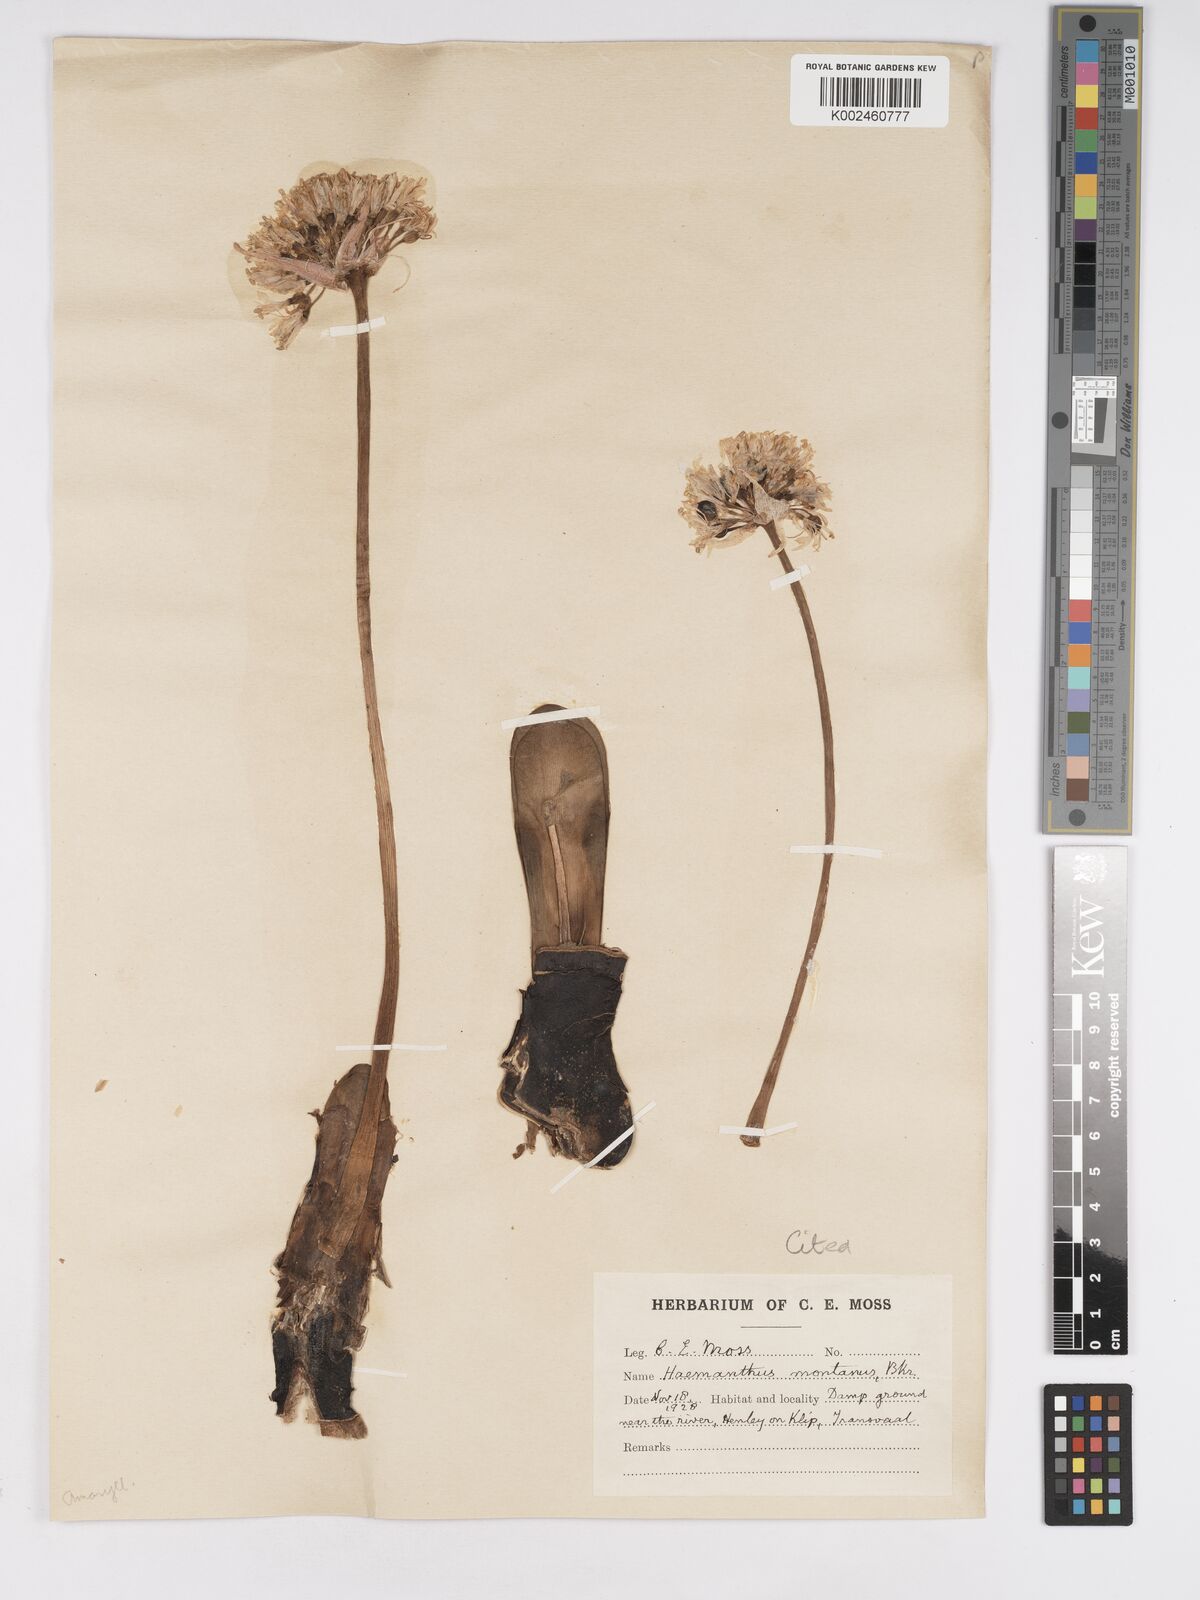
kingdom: Plantae
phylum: Tracheophyta
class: Liliopsida
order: Asparagales
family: Amaryllidaceae
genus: Haemanthus
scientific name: Haemanthus montanus
